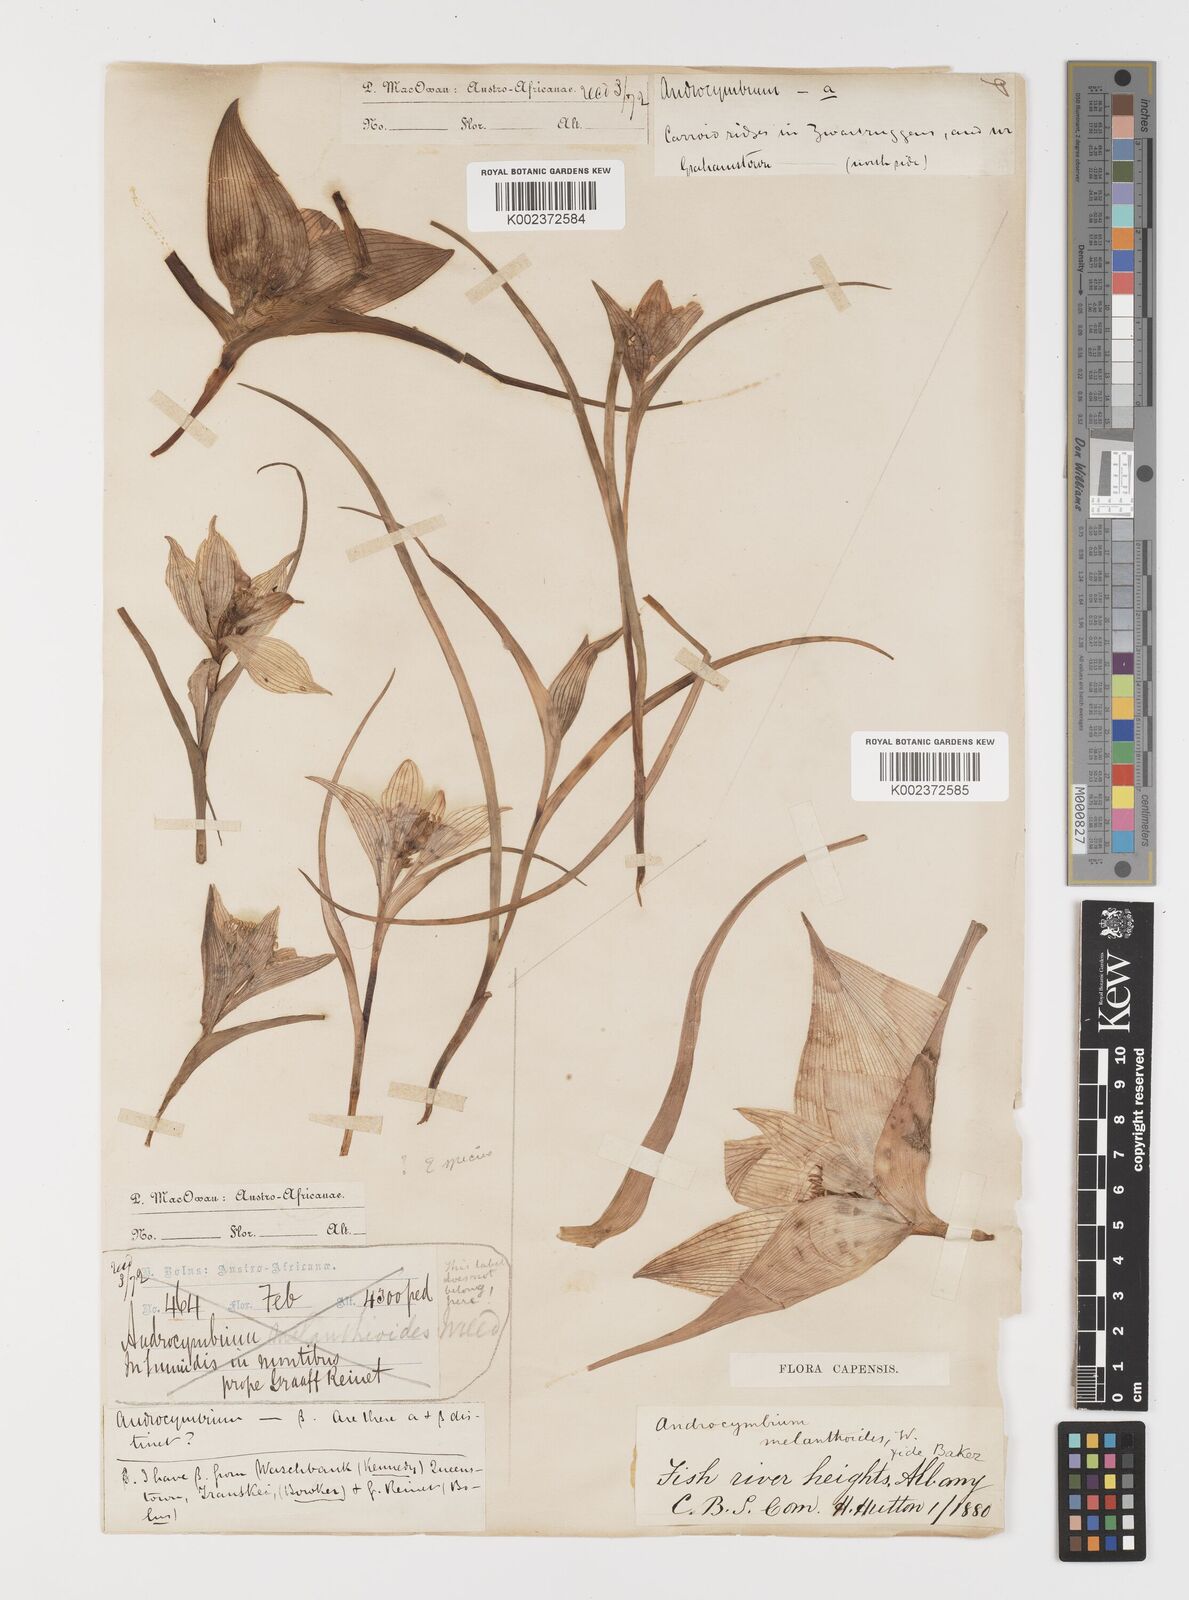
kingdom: Plantae
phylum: Tracheophyta
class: Liliopsida
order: Liliales
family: Colchicaceae
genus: Colchicum
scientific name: Colchicum melanthioides
